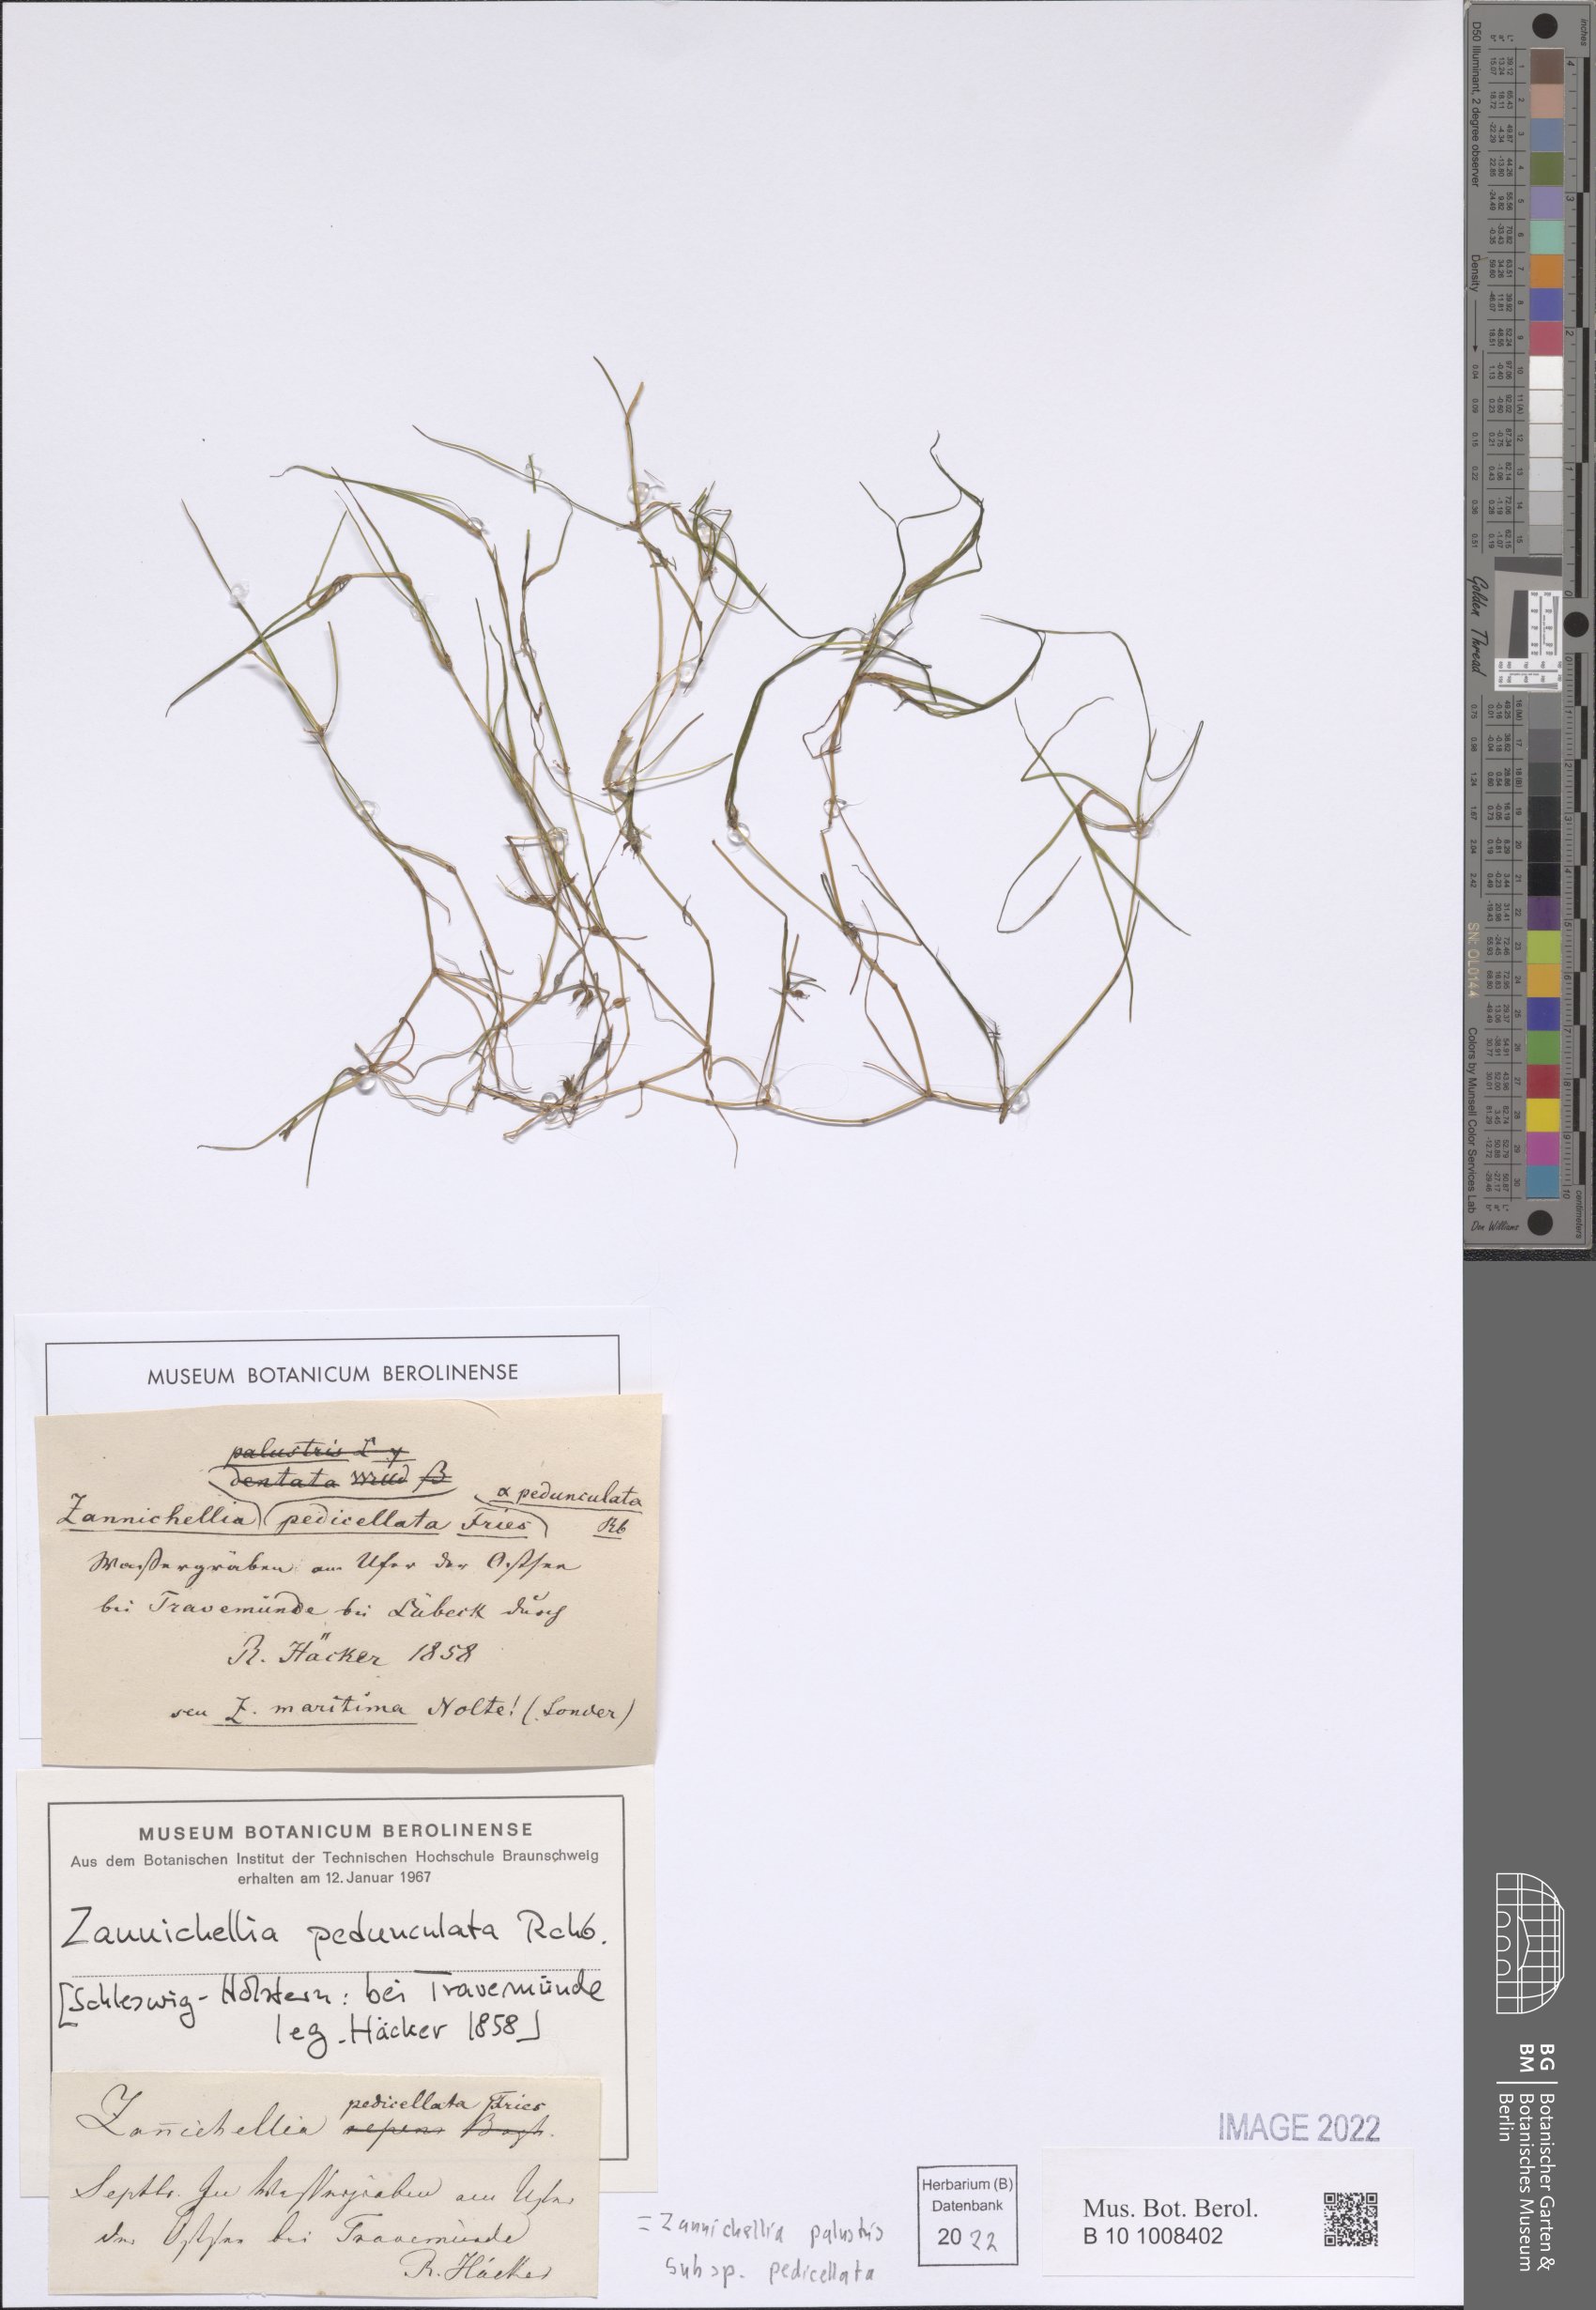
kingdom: Plantae
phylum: Tracheophyta
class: Liliopsida
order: Alismatales
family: Potamogetonaceae
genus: Zannichellia
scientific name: Zannichellia palustris
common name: Horned pondweed
